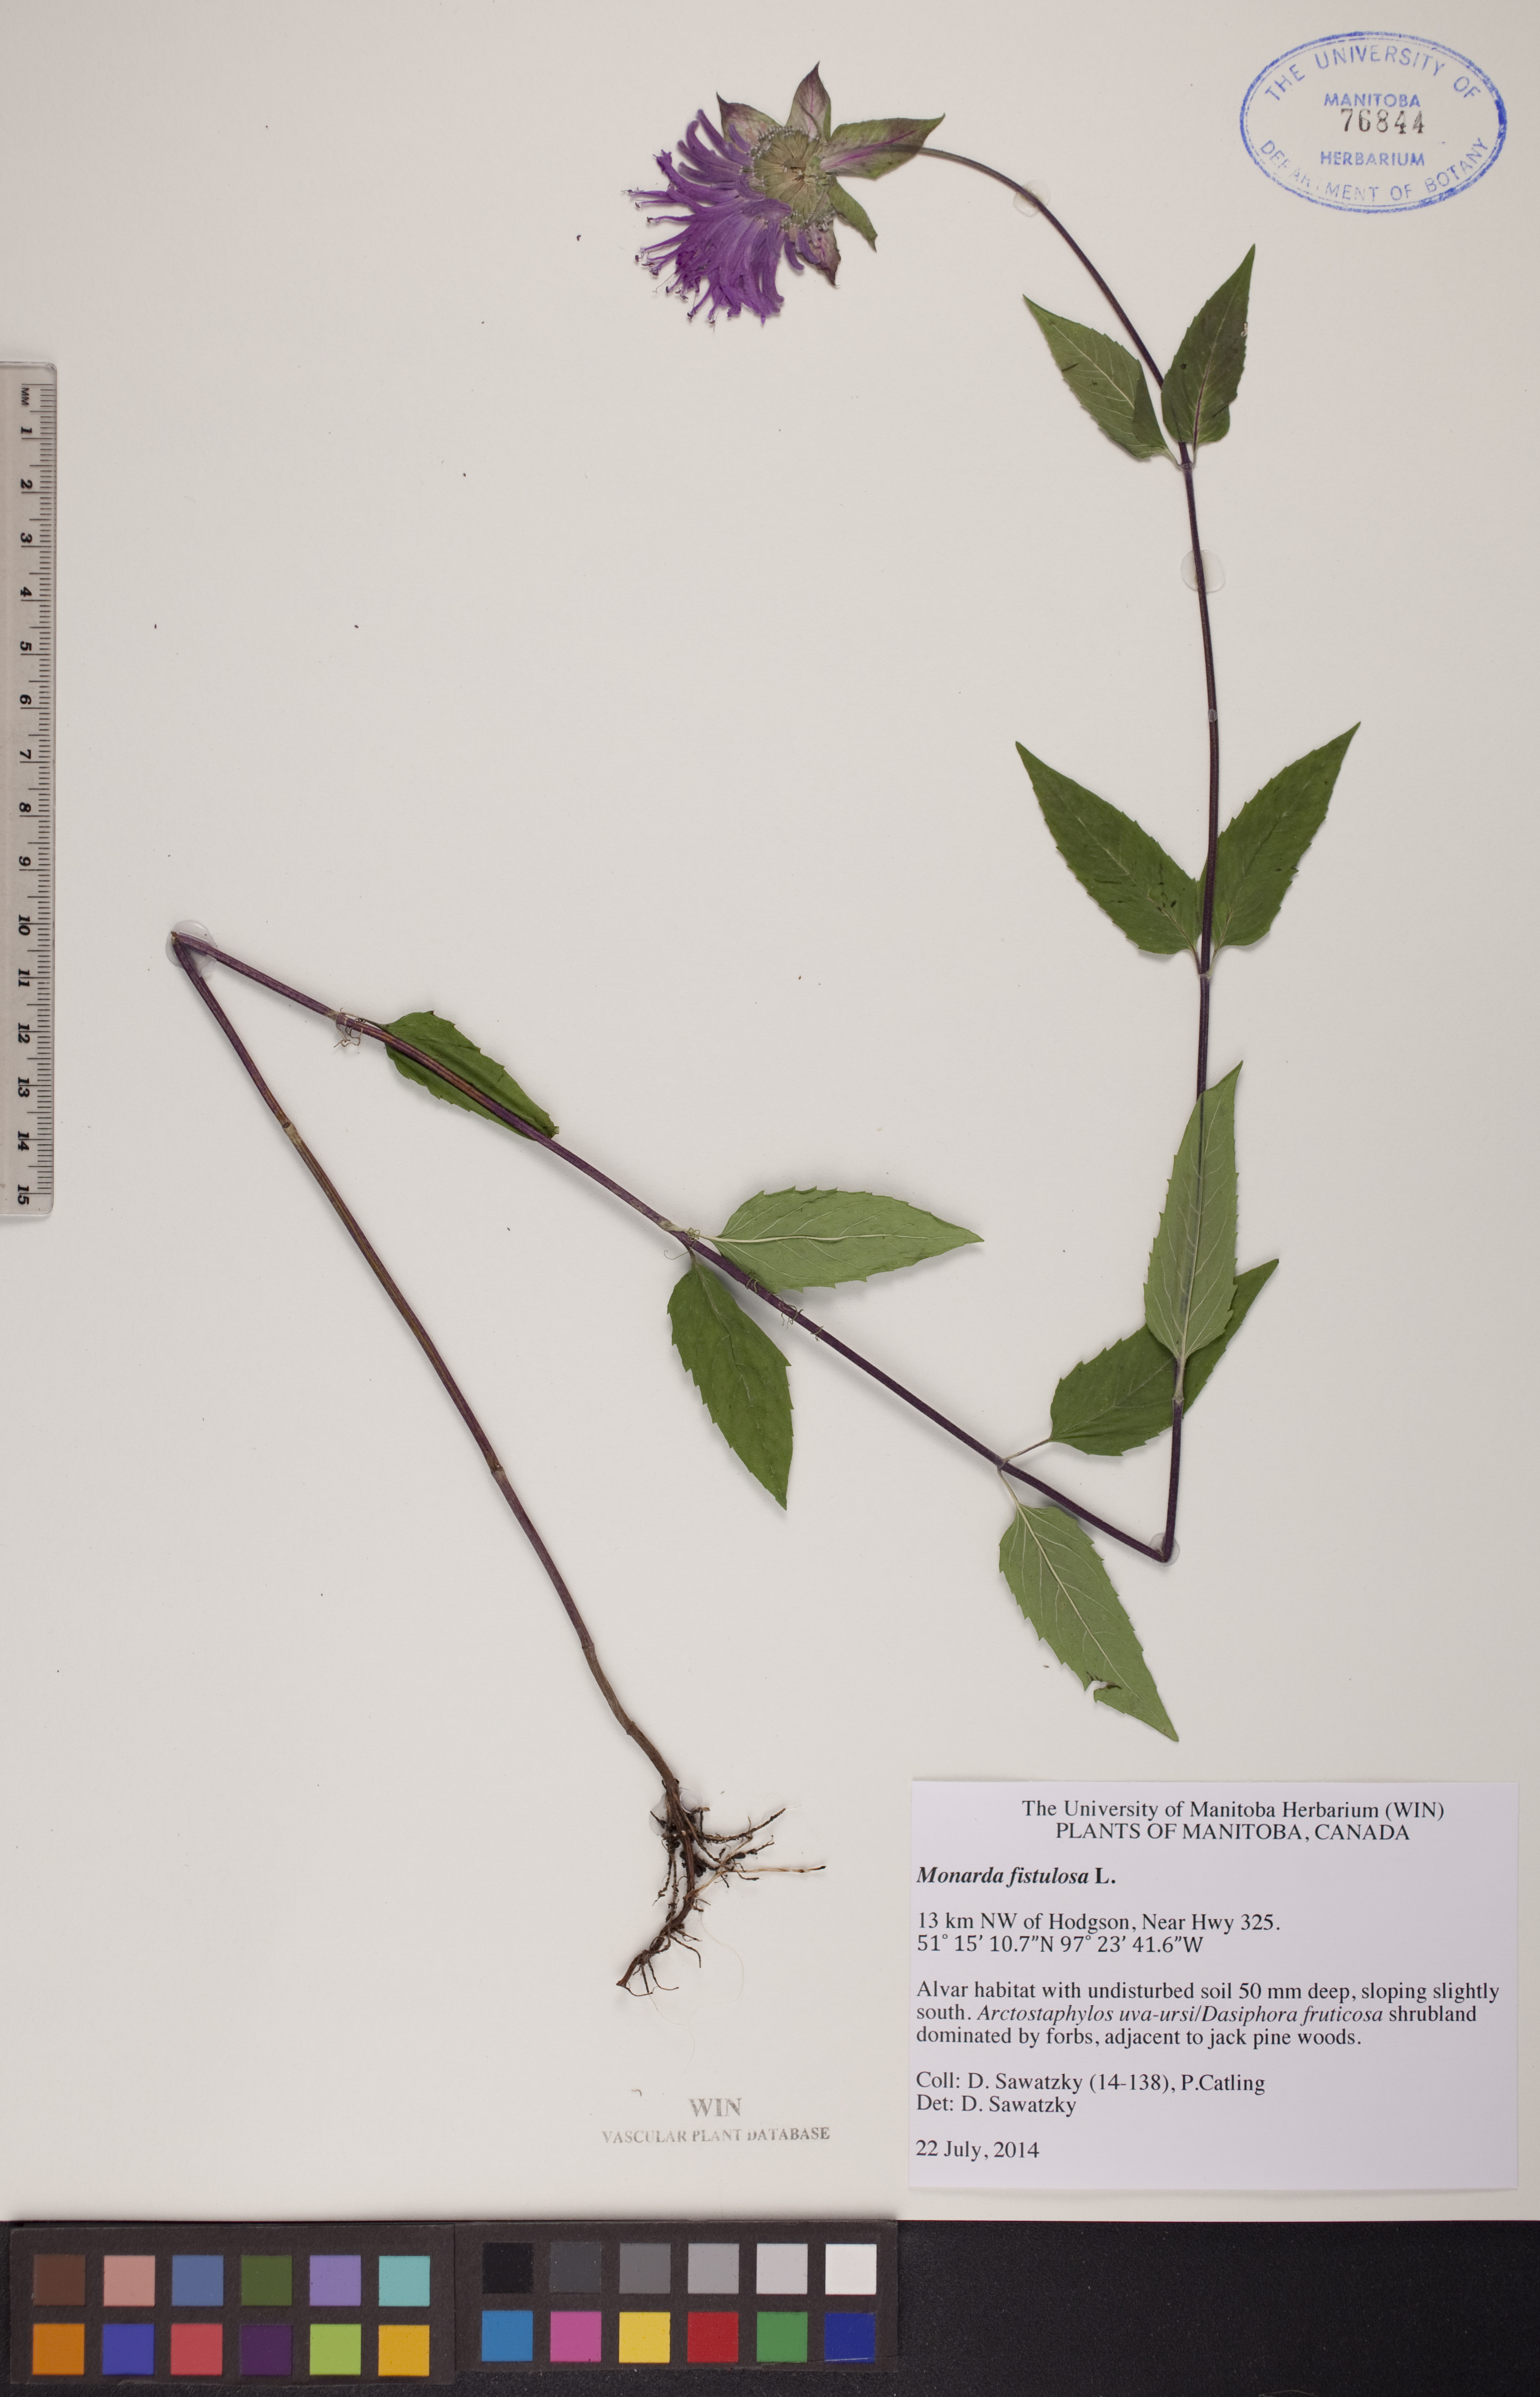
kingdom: Plantae
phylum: Tracheophyta
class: Magnoliopsida
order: Lamiales
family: Lamiaceae
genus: Monarda
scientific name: Monarda fistulosa
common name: Purple beebalm
